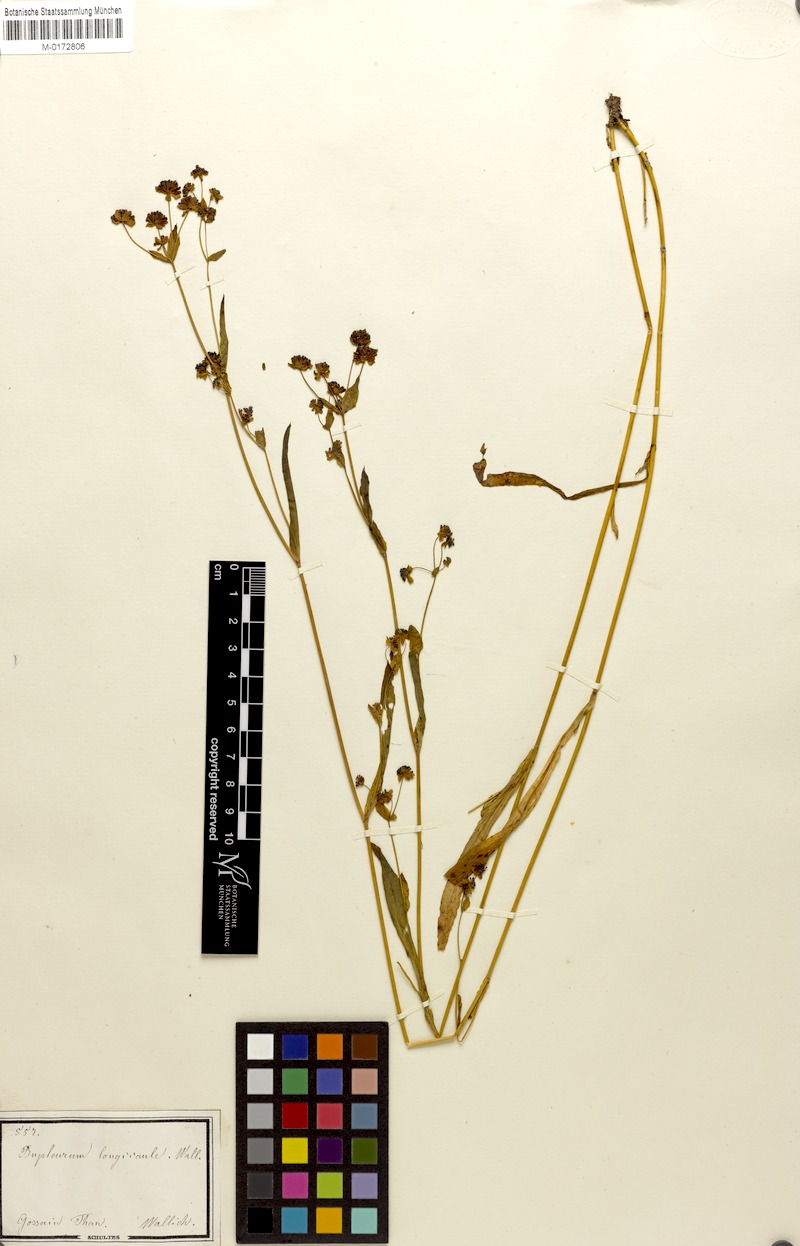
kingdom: Plantae
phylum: Tracheophyta
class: Magnoliopsida
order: Apiales
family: Apiaceae
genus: Bupleurum
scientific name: Bupleurum longicaule
